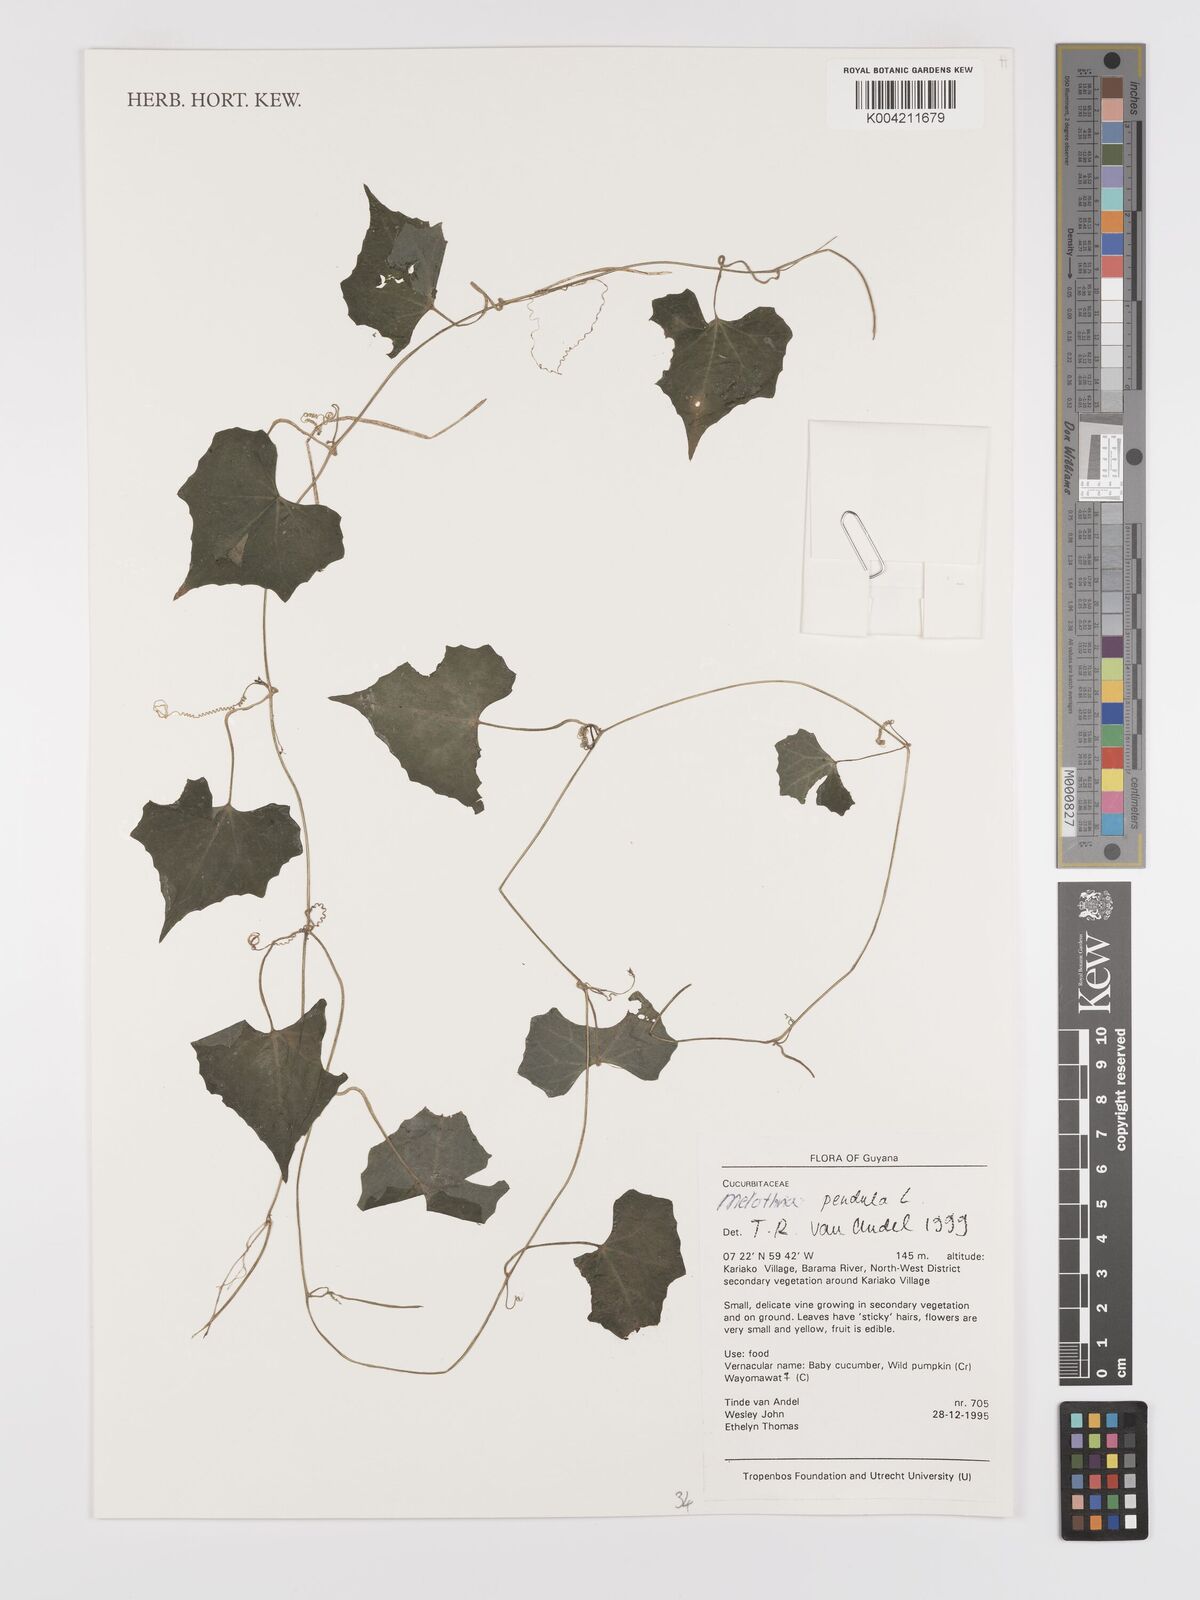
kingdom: Plantae
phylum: Tracheophyta
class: Magnoliopsida
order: Cucurbitales
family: Cucurbitaceae
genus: Melothria
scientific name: Melothria pendula
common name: Creeping-cucumber
